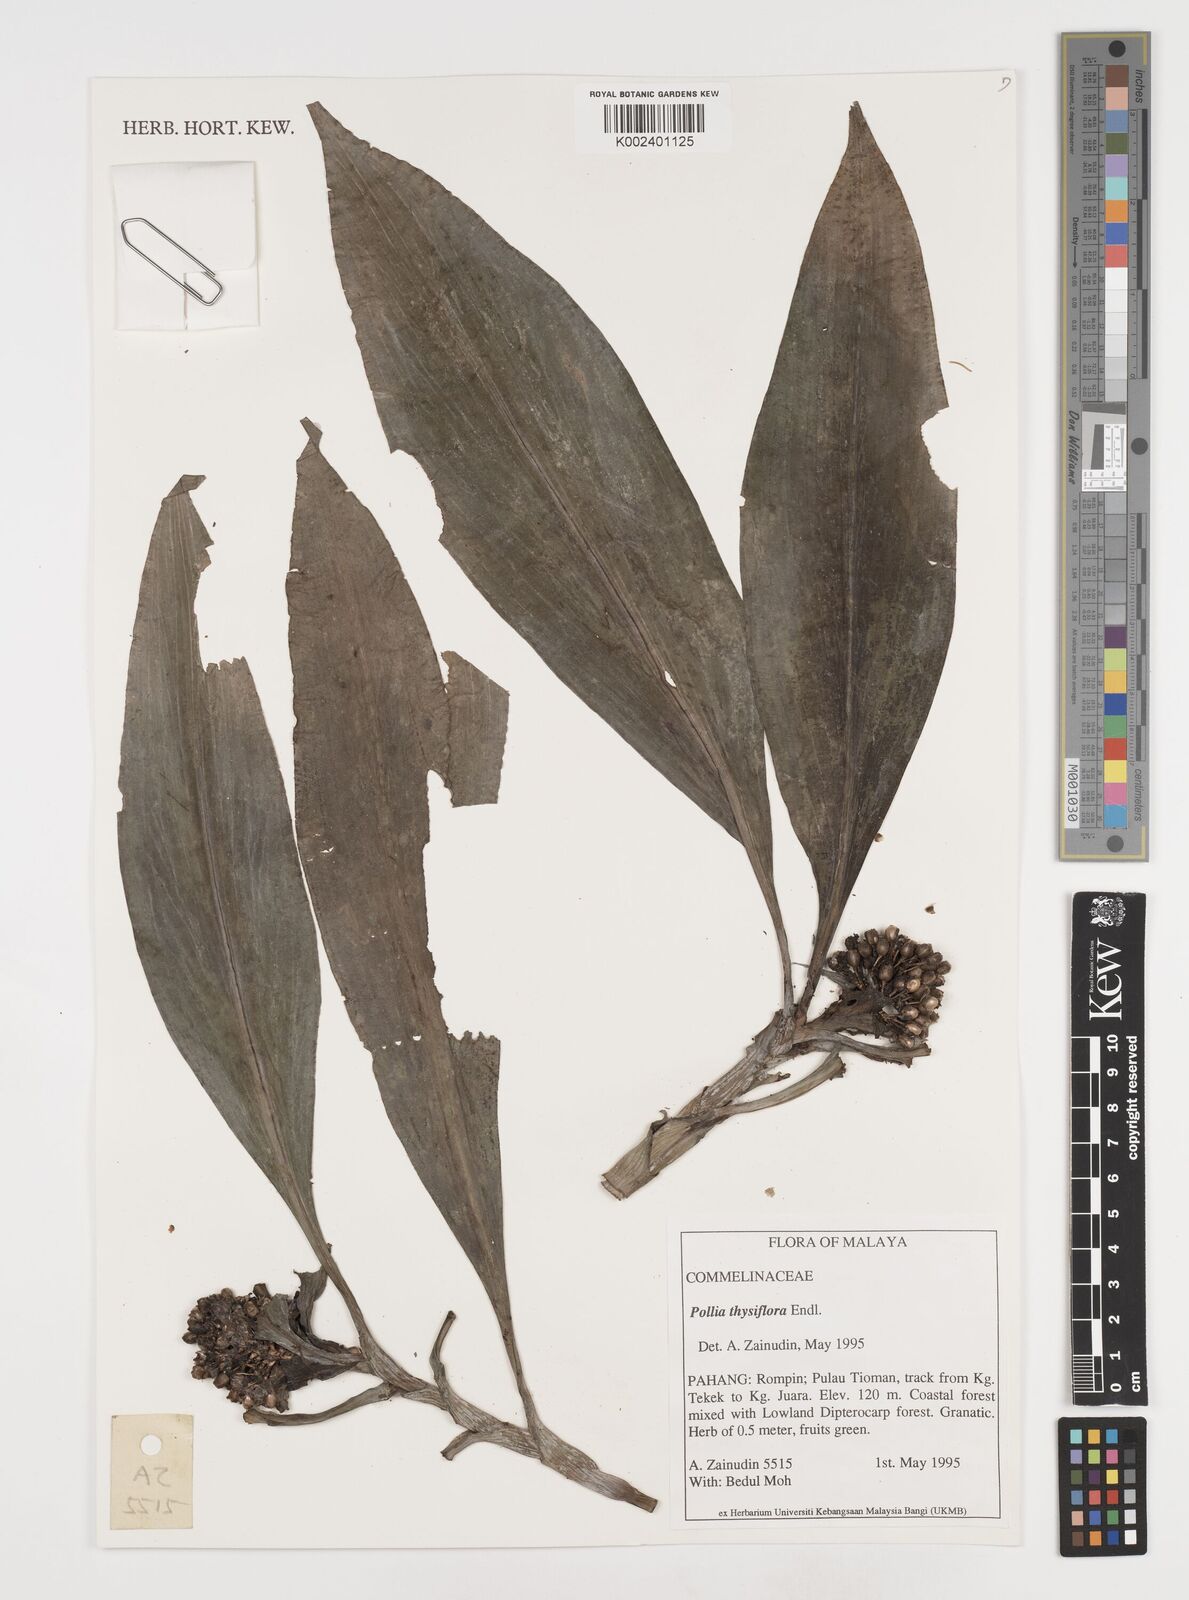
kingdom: Plantae
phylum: Tracheophyta
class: Liliopsida
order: Commelinales
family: Commelinaceae
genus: Pollia
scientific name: Pollia thyrsiflora
